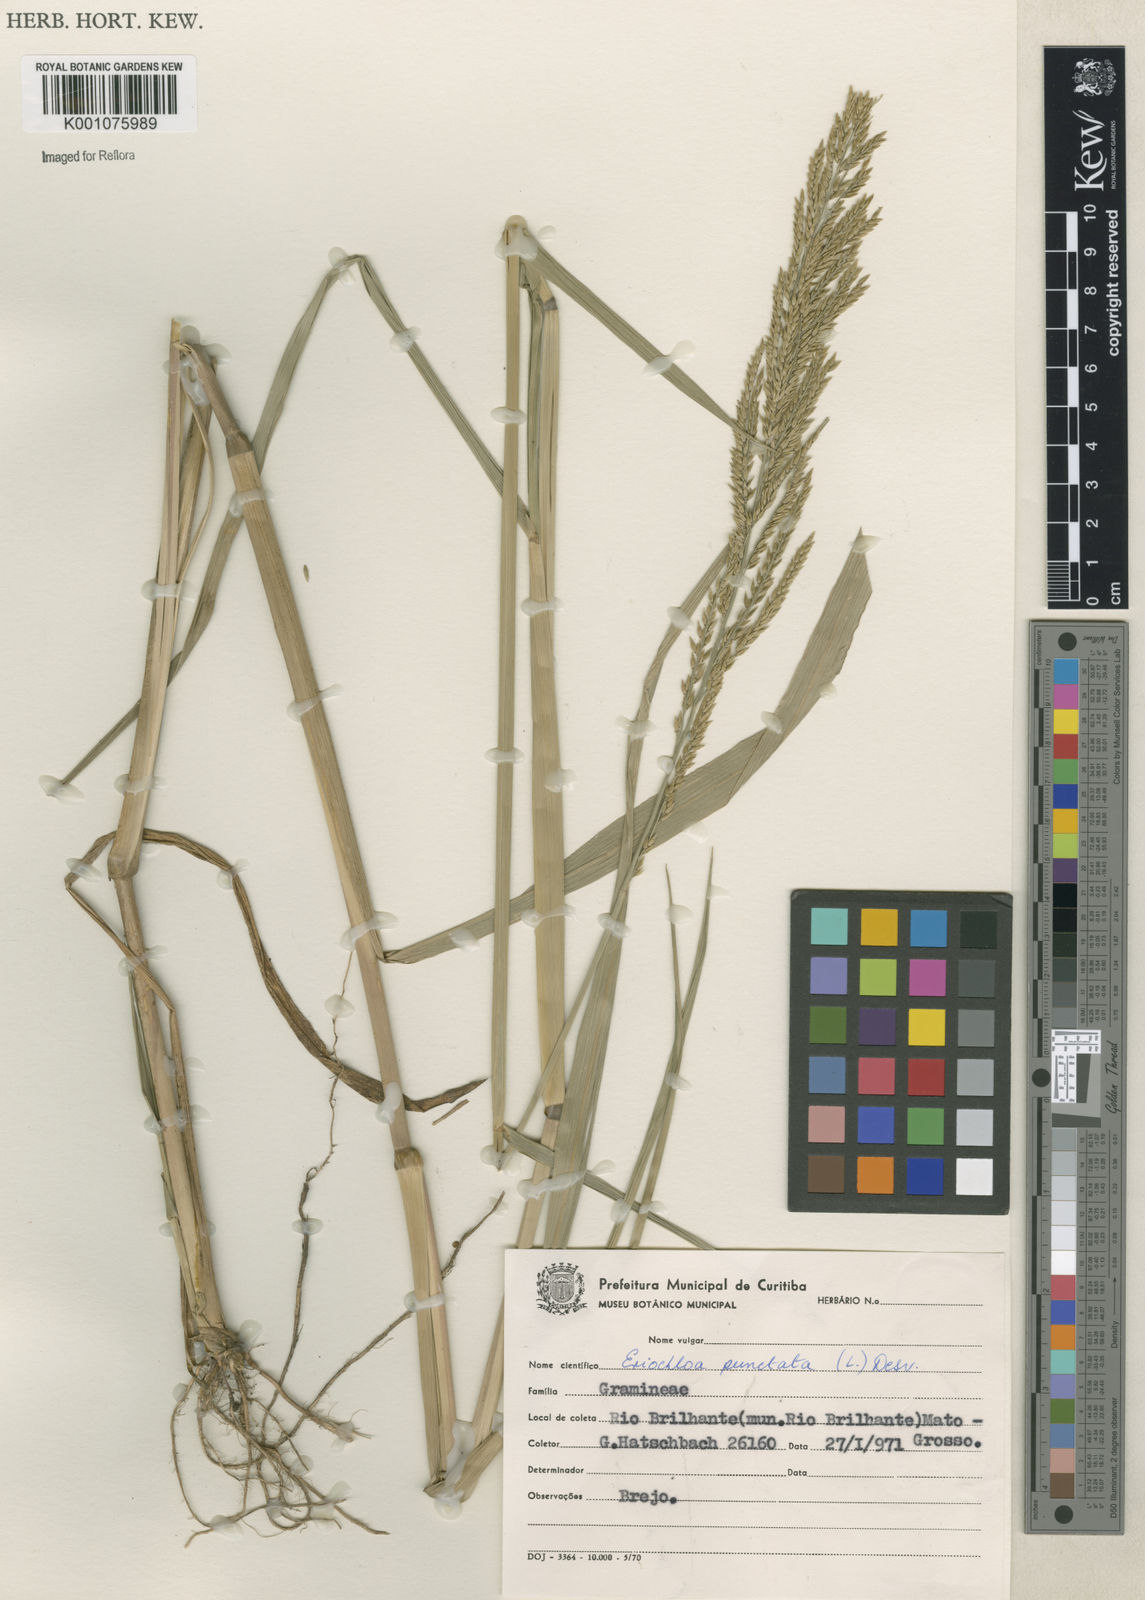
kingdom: Plantae
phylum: Tracheophyta
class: Liliopsida
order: Poales
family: Poaceae
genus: Eriochloa
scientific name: Eriochloa punctata
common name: Louisiana cupgrass
